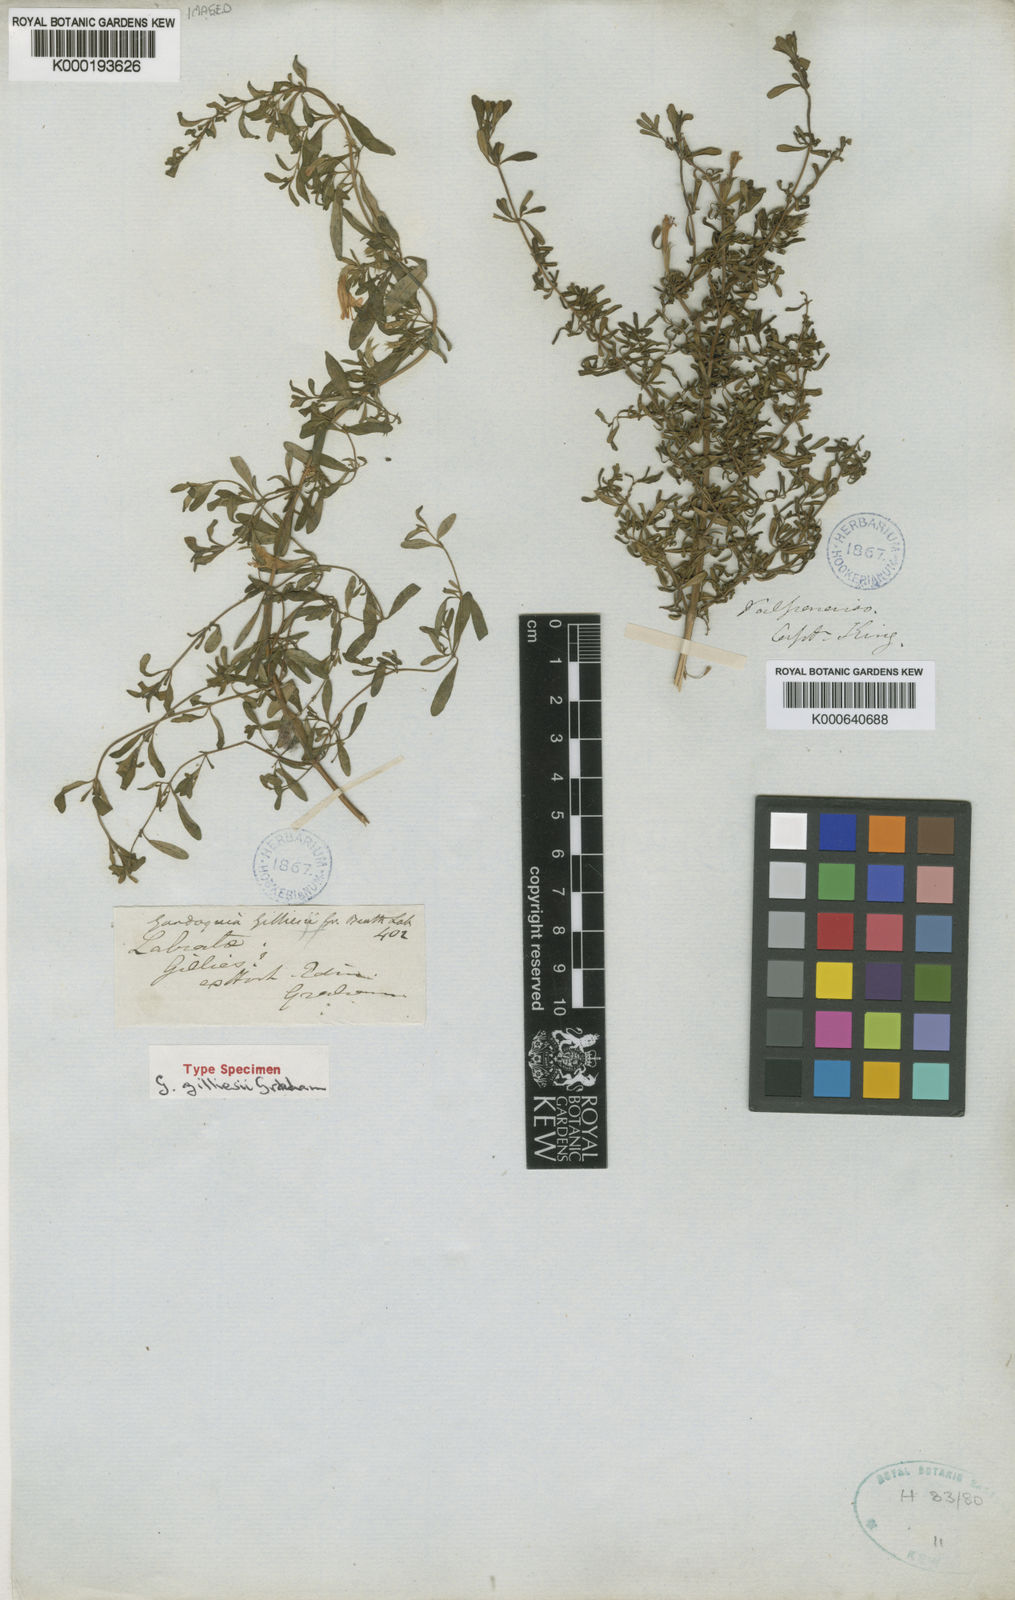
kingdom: Plantae
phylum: Tracheophyta
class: Magnoliopsida
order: Lamiales
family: Lamiaceae
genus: Clinopodium
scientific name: Clinopodium chilense
